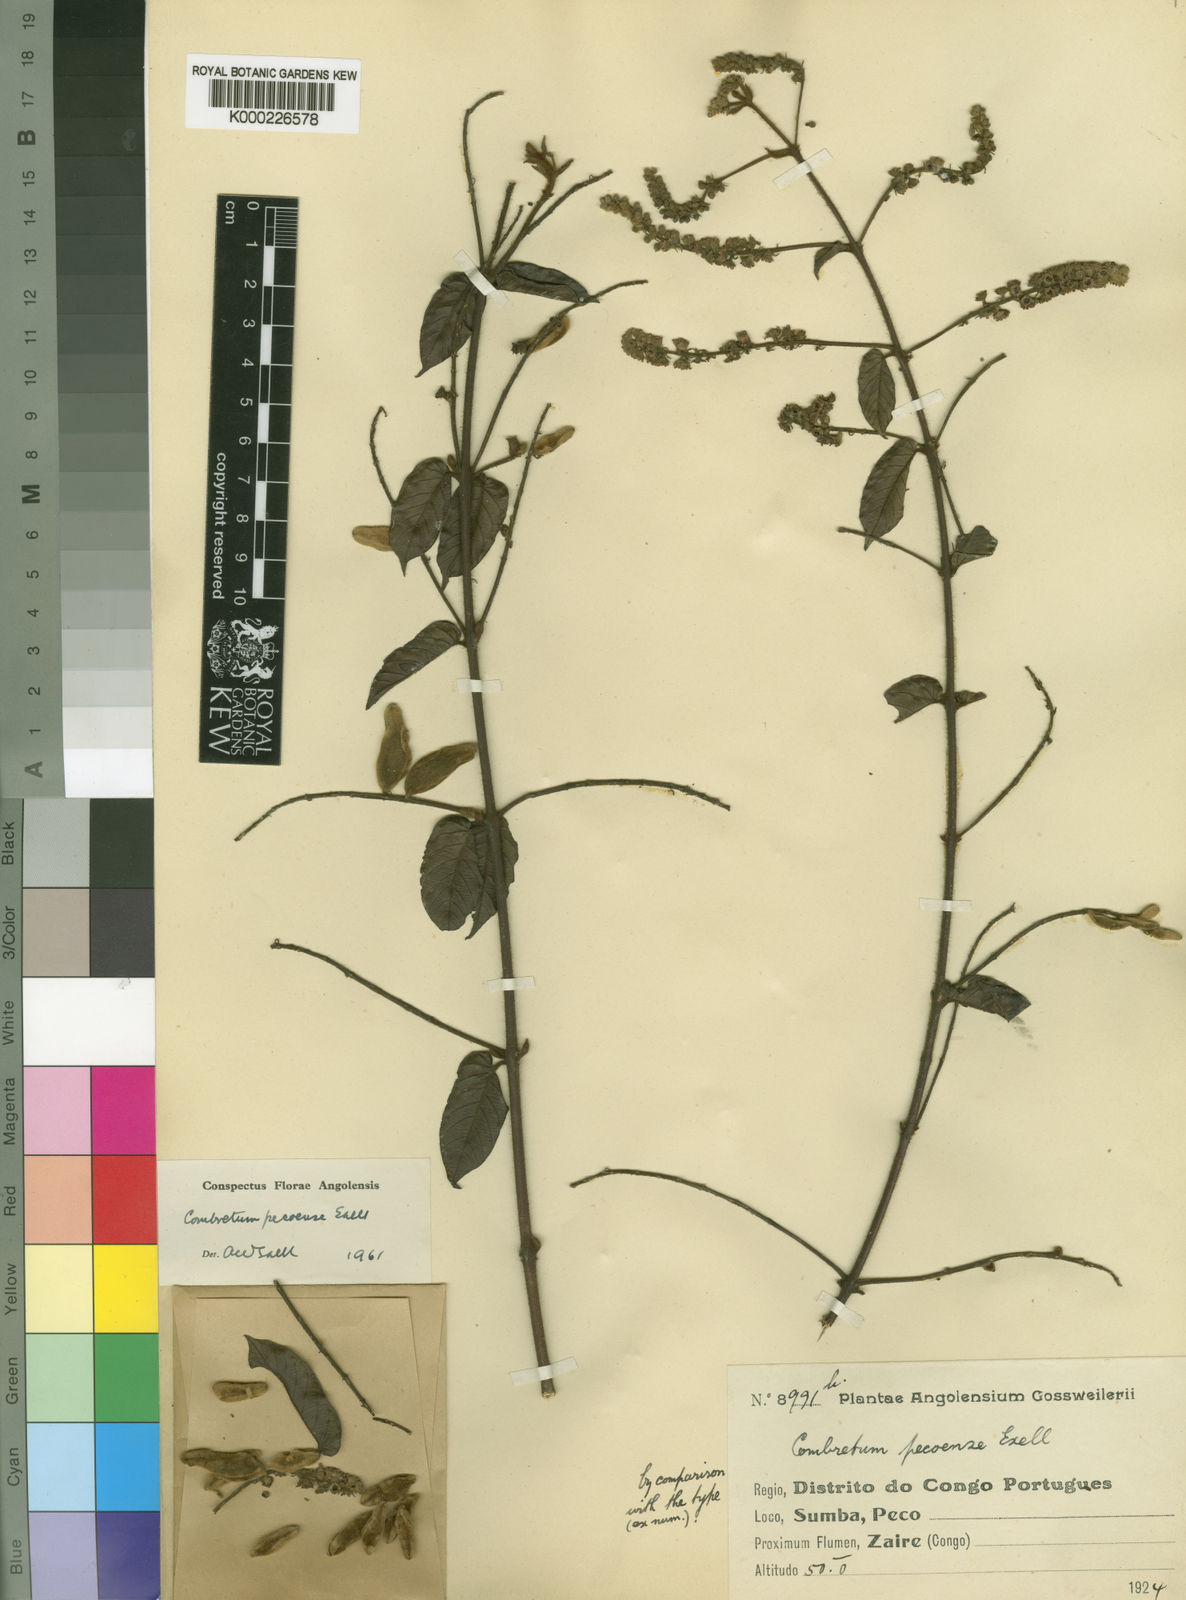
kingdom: Plantae
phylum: Tracheophyta
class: Magnoliopsida
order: Myrtales
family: Combretaceae
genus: Combretum
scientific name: Combretum pecoense
